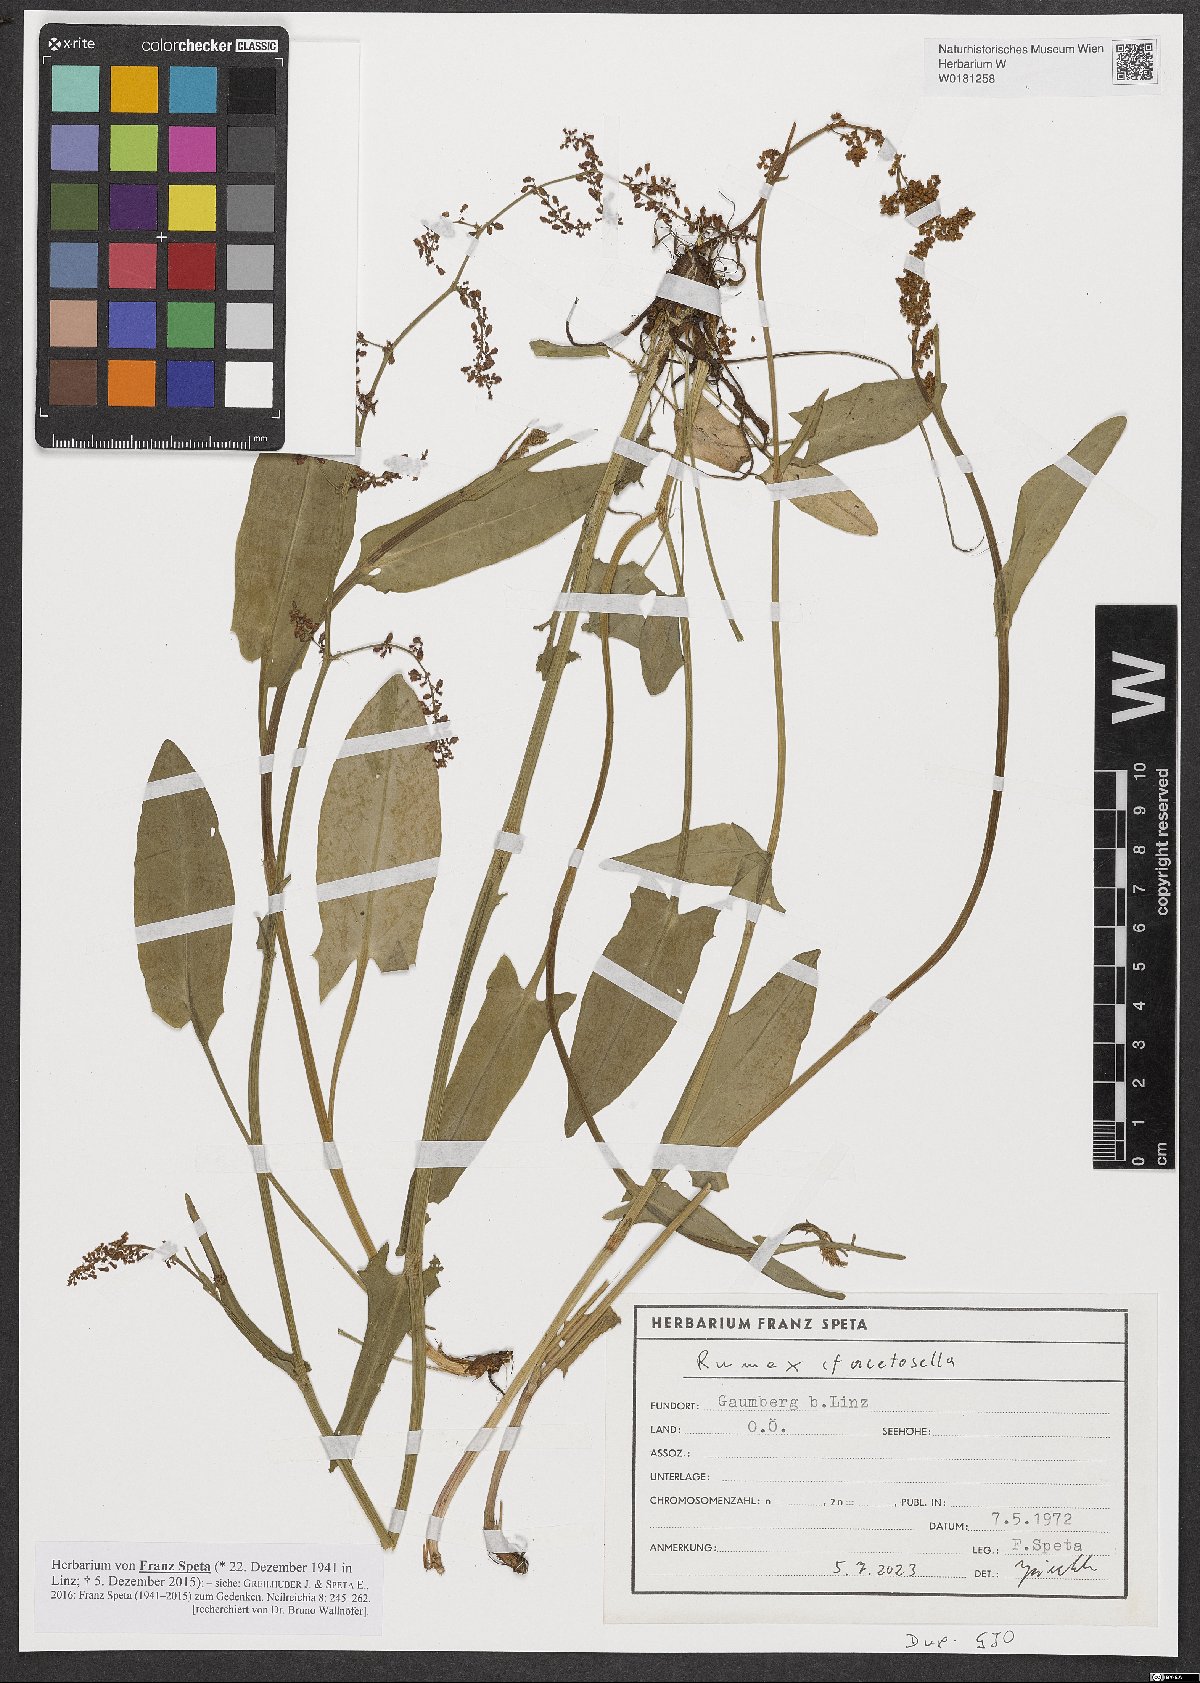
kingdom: Plantae
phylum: Tracheophyta
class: Magnoliopsida
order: Caryophyllales
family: Polygonaceae
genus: Rumex
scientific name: Rumex acetosella
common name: Common sheep sorrel
